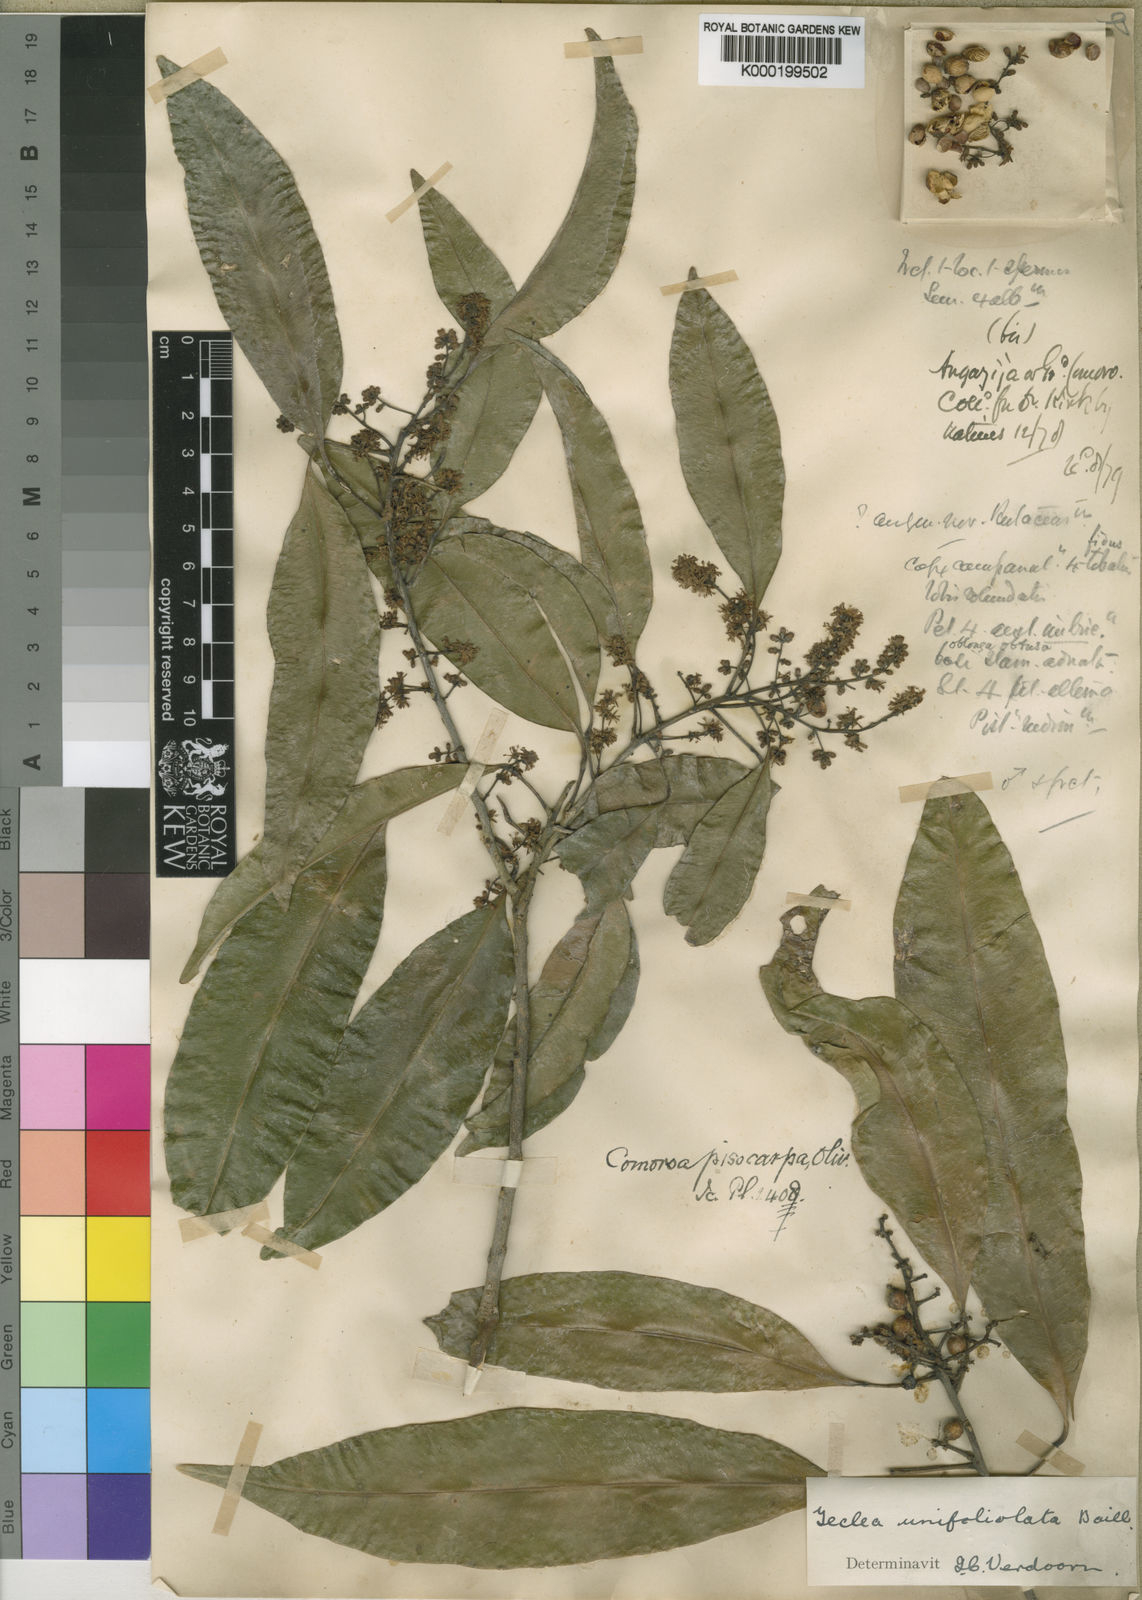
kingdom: Plantae
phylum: Tracheophyta
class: Magnoliopsida
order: Sapindales
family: Rutaceae
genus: Vepris
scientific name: Vepris unifoliolata
